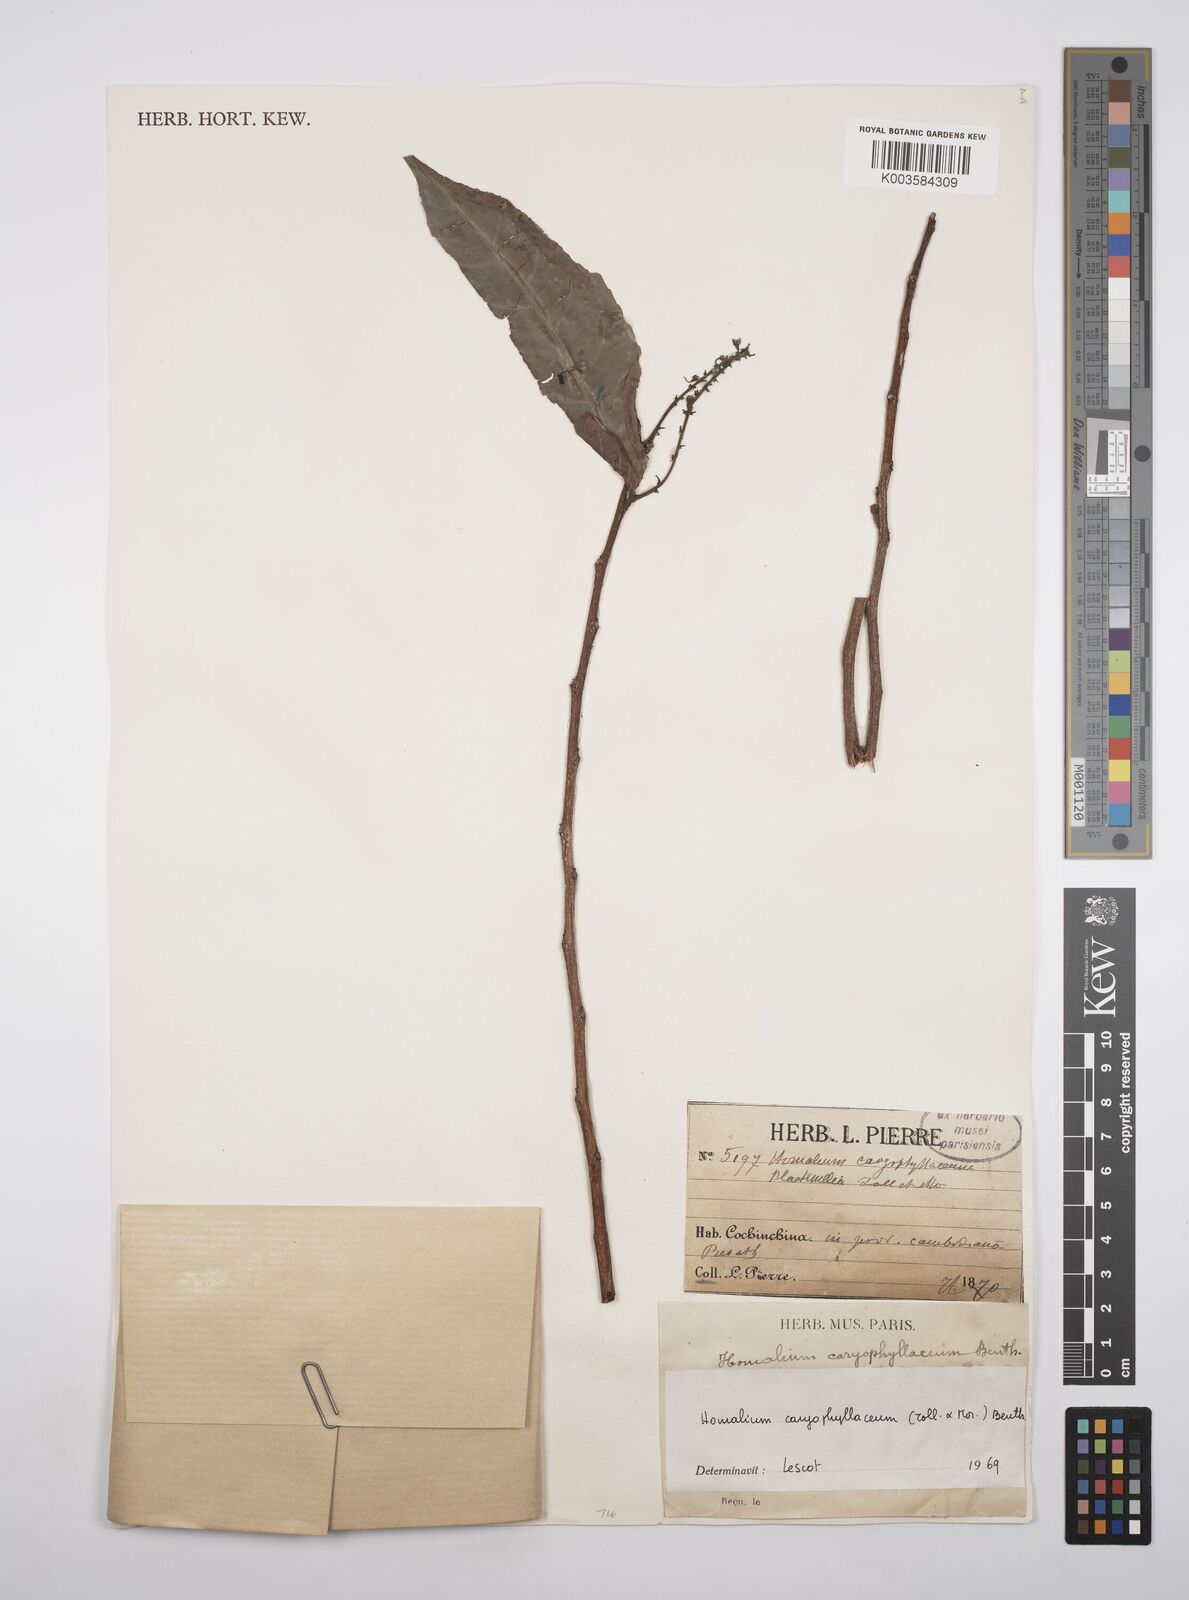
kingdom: Plantae
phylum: Tracheophyta
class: Magnoliopsida
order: Malpighiales
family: Salicaceae
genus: Homalium
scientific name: Homalium caryophyllaceum
